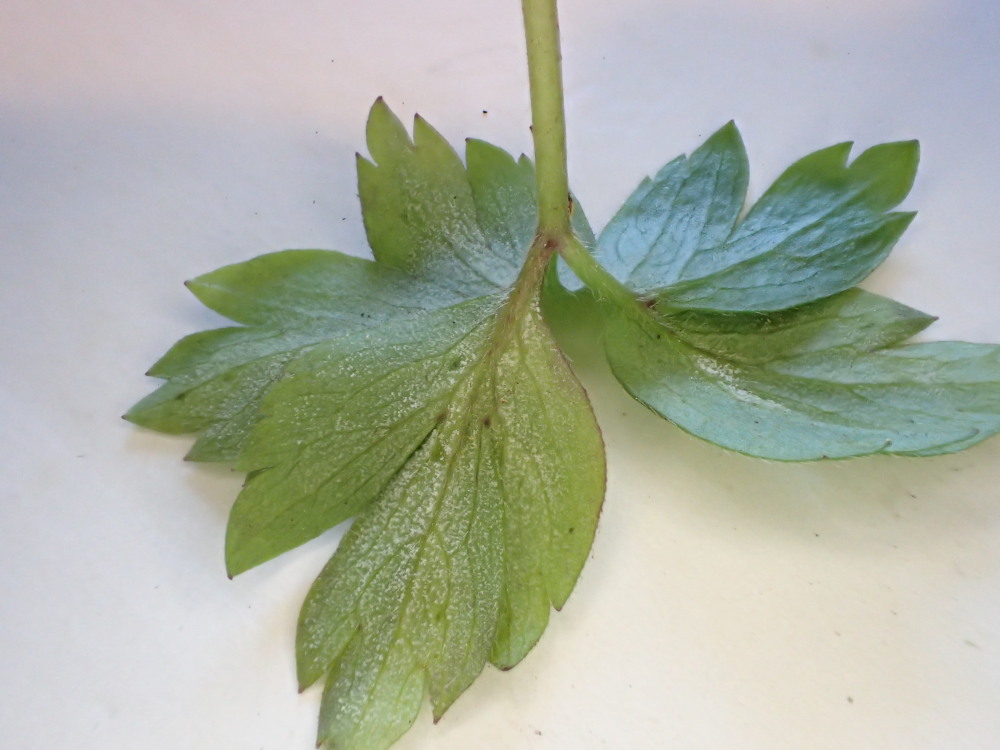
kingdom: Chromista
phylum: Oomycota
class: Peronosporea
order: Peronosporales
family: Peronosporaceae
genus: Plasmoverna
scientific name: Plasmoverna pygmaea
